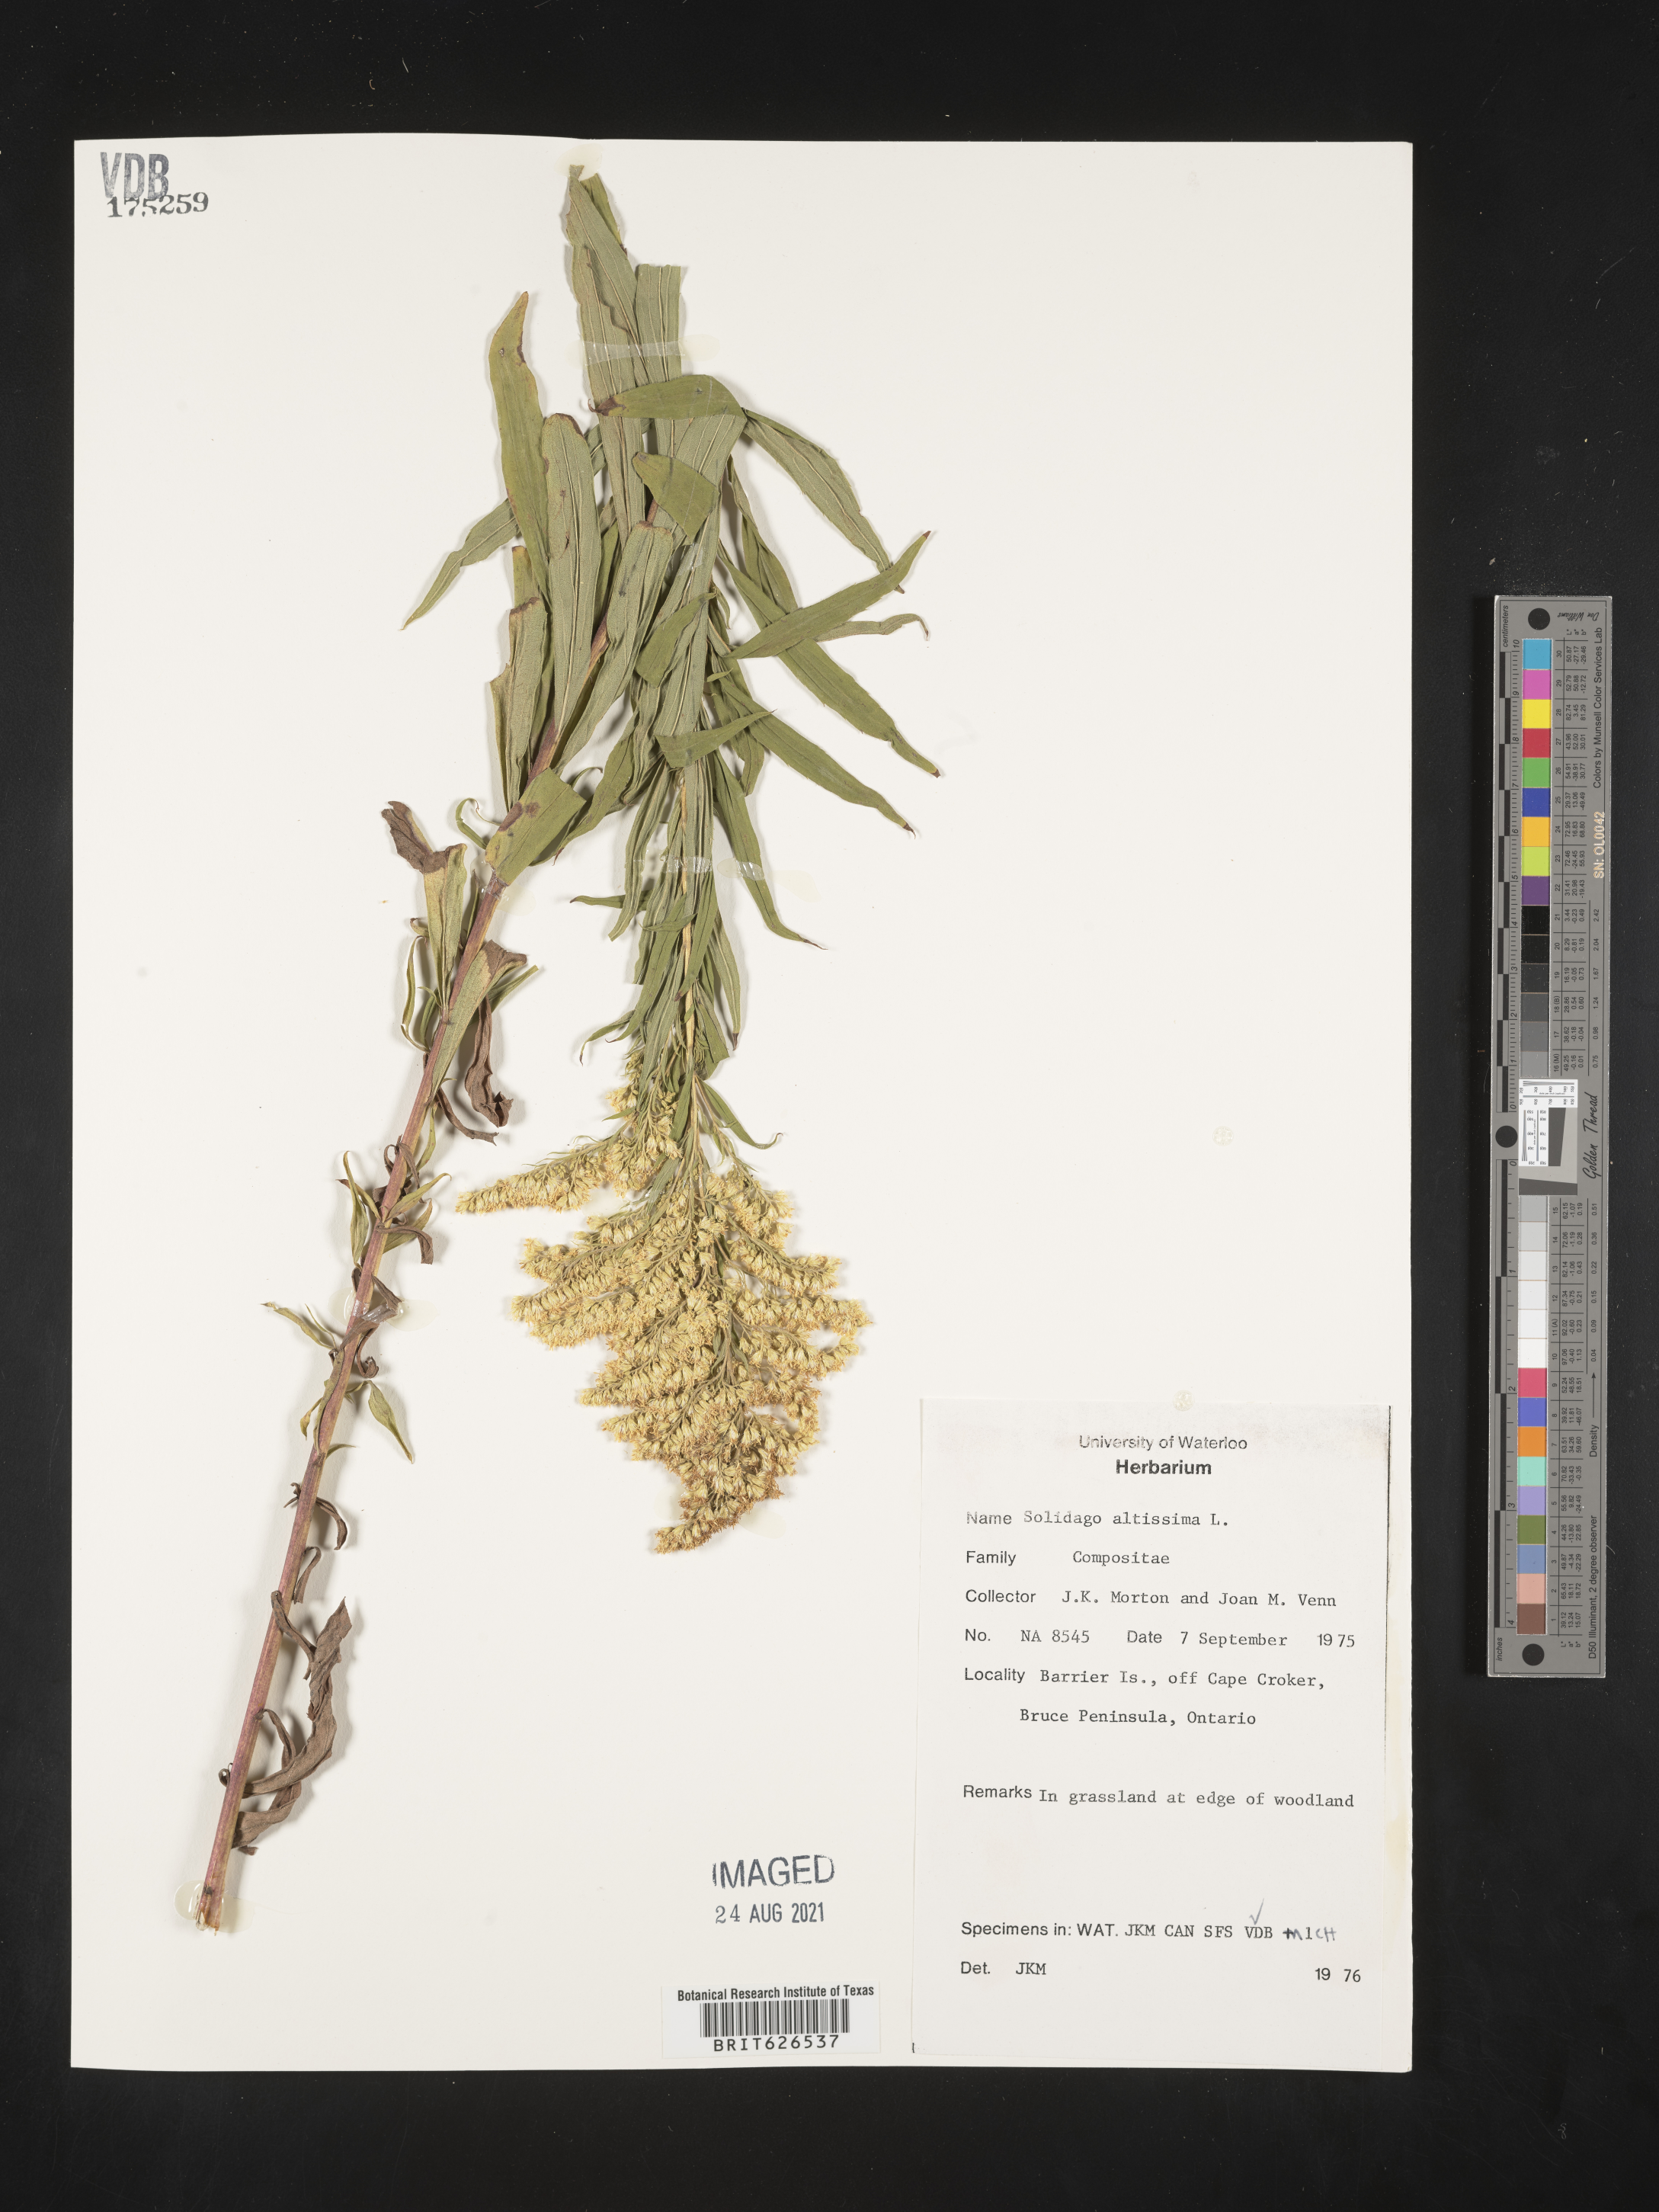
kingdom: Plantae
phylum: Tracheophyta
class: Magnoliopsida
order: Asterales
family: Asteraceae
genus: Solidago
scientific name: Solidago altissima
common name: Late goldenrod
